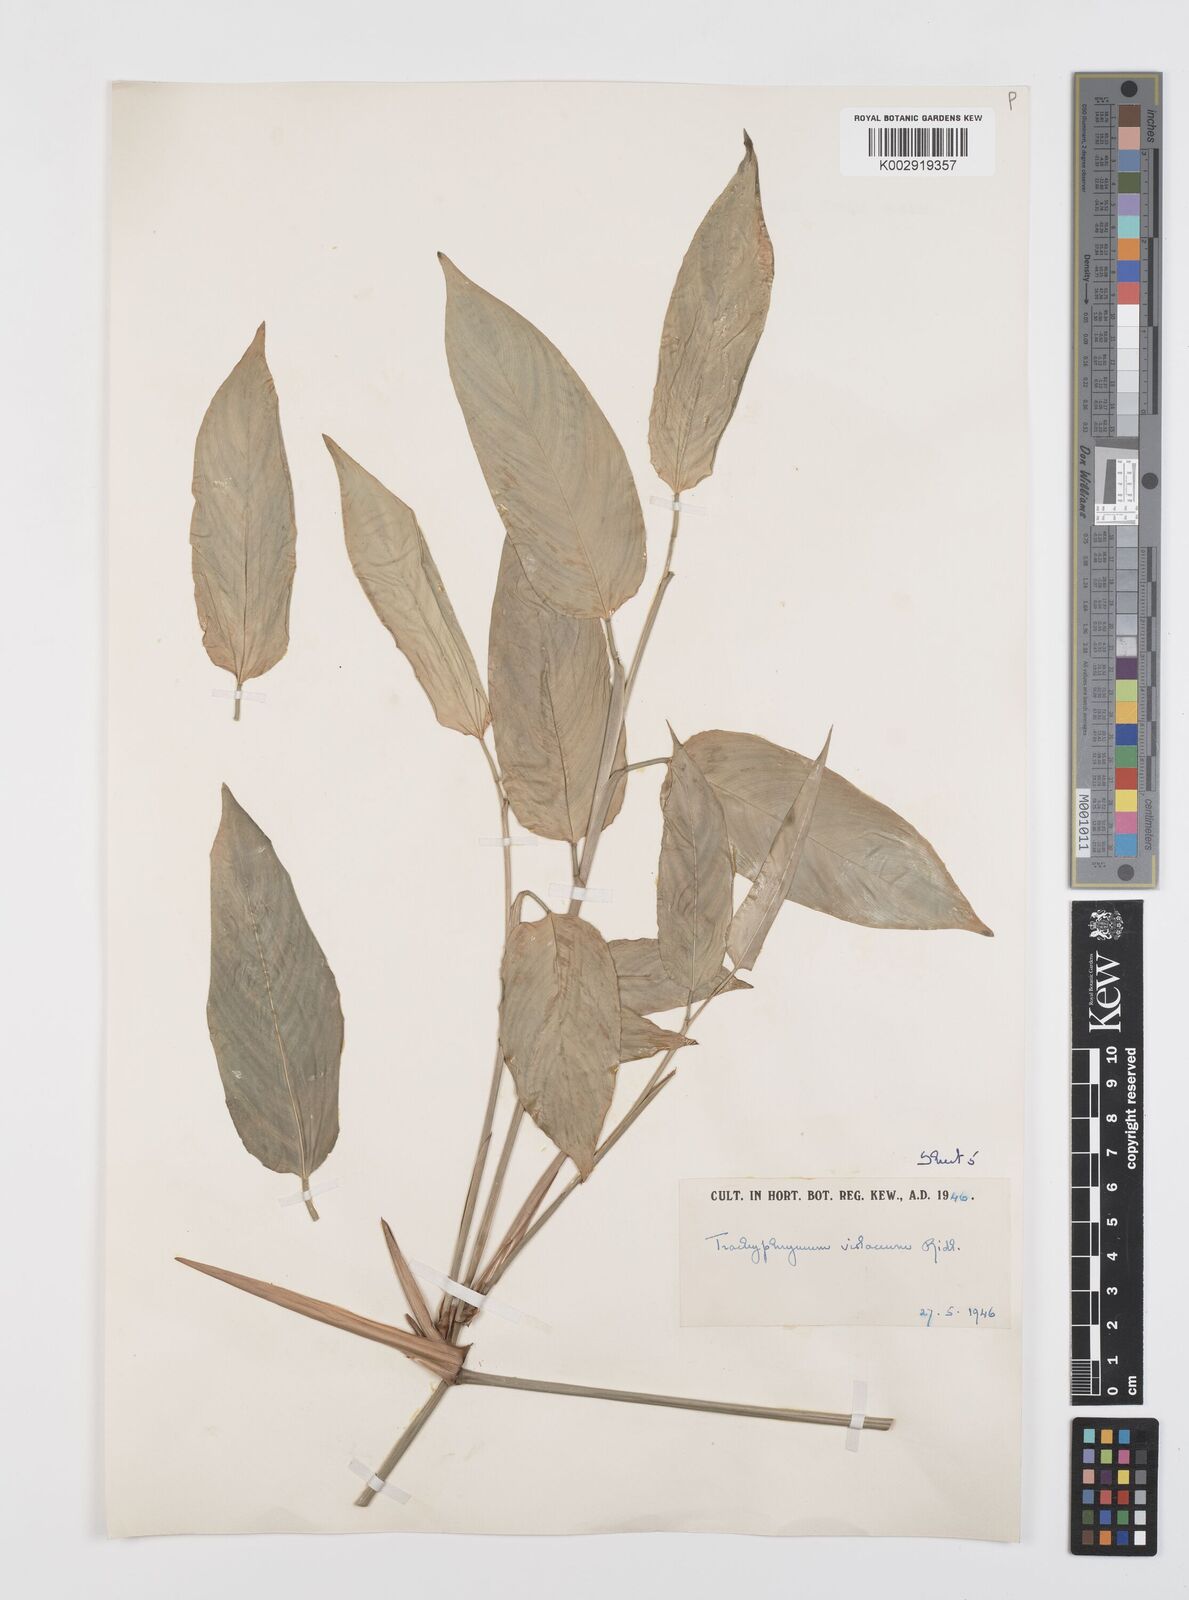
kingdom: Plantae
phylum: Tracheophyta
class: Liliopsida
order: Zingiberales
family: Marantaceae
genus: Hypselodelphys
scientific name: Hypselodelphys poggeana
